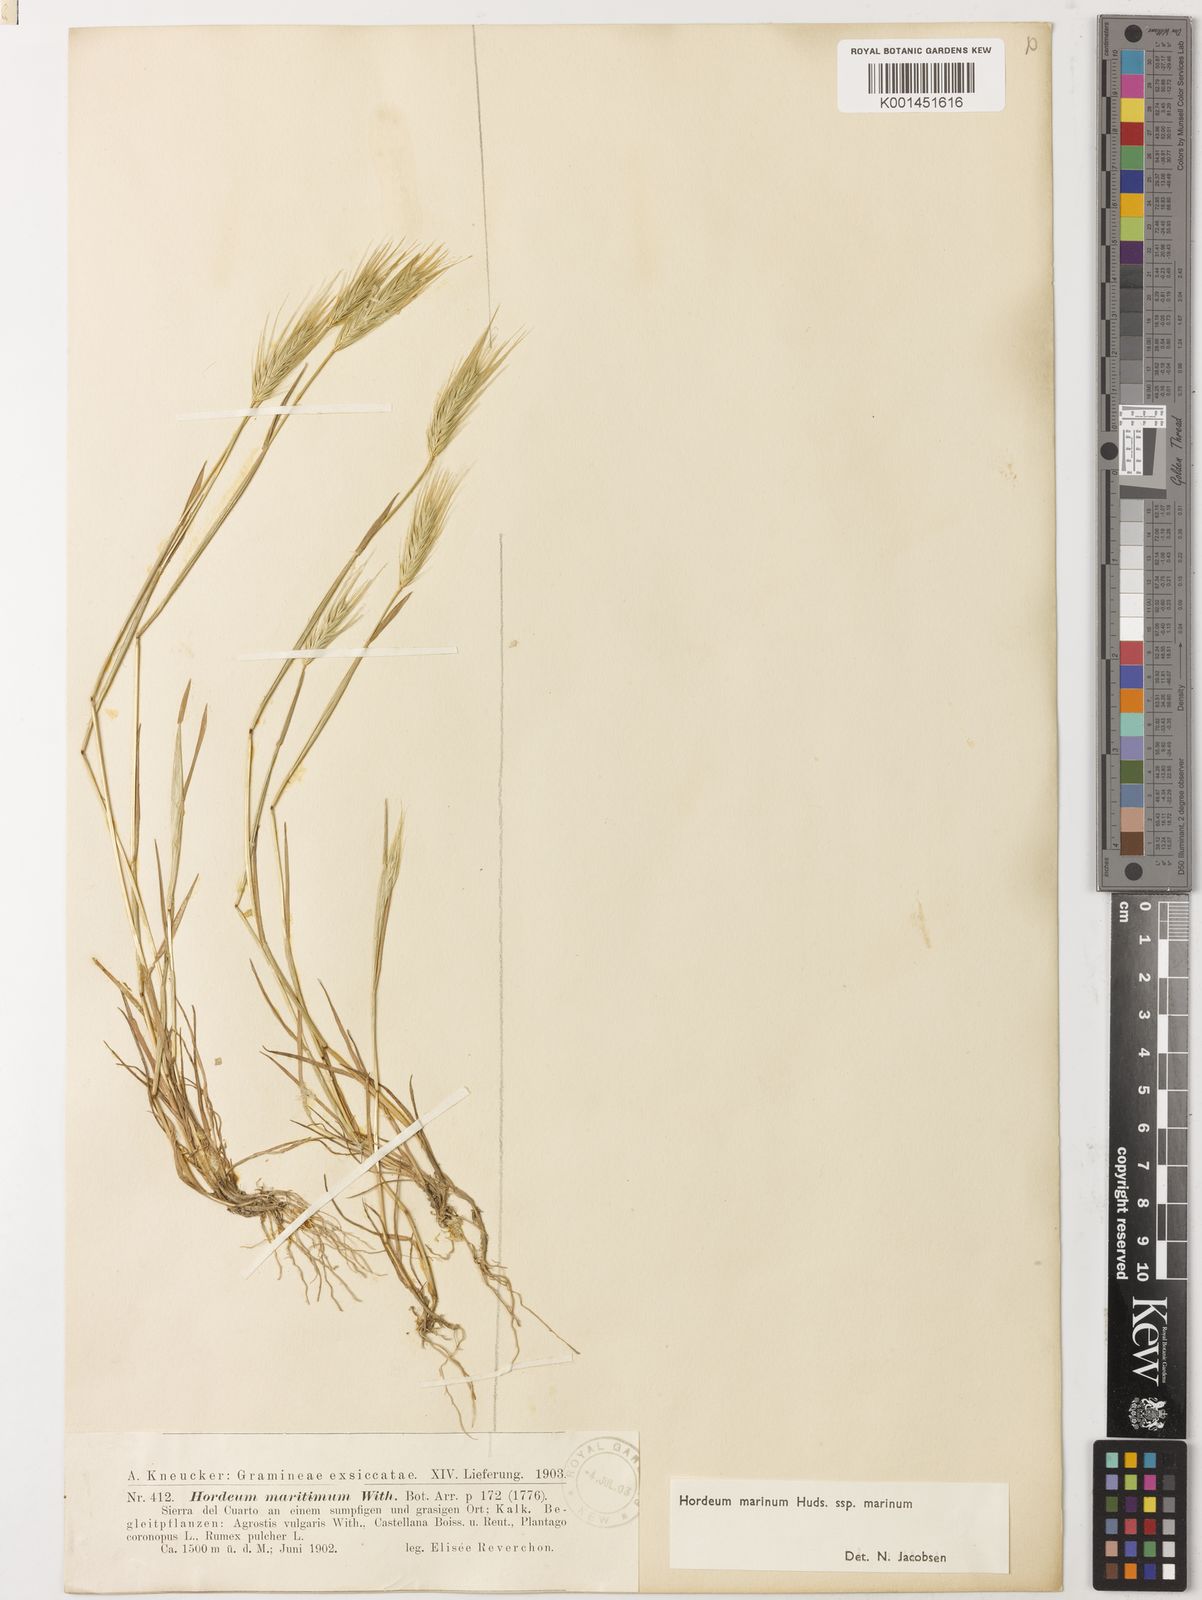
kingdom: Plantae
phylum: Tracheophyta
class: Liliopsida
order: Poales
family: Poaceae
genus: Hordeum
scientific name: Hordeum marinum
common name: Sea barley
